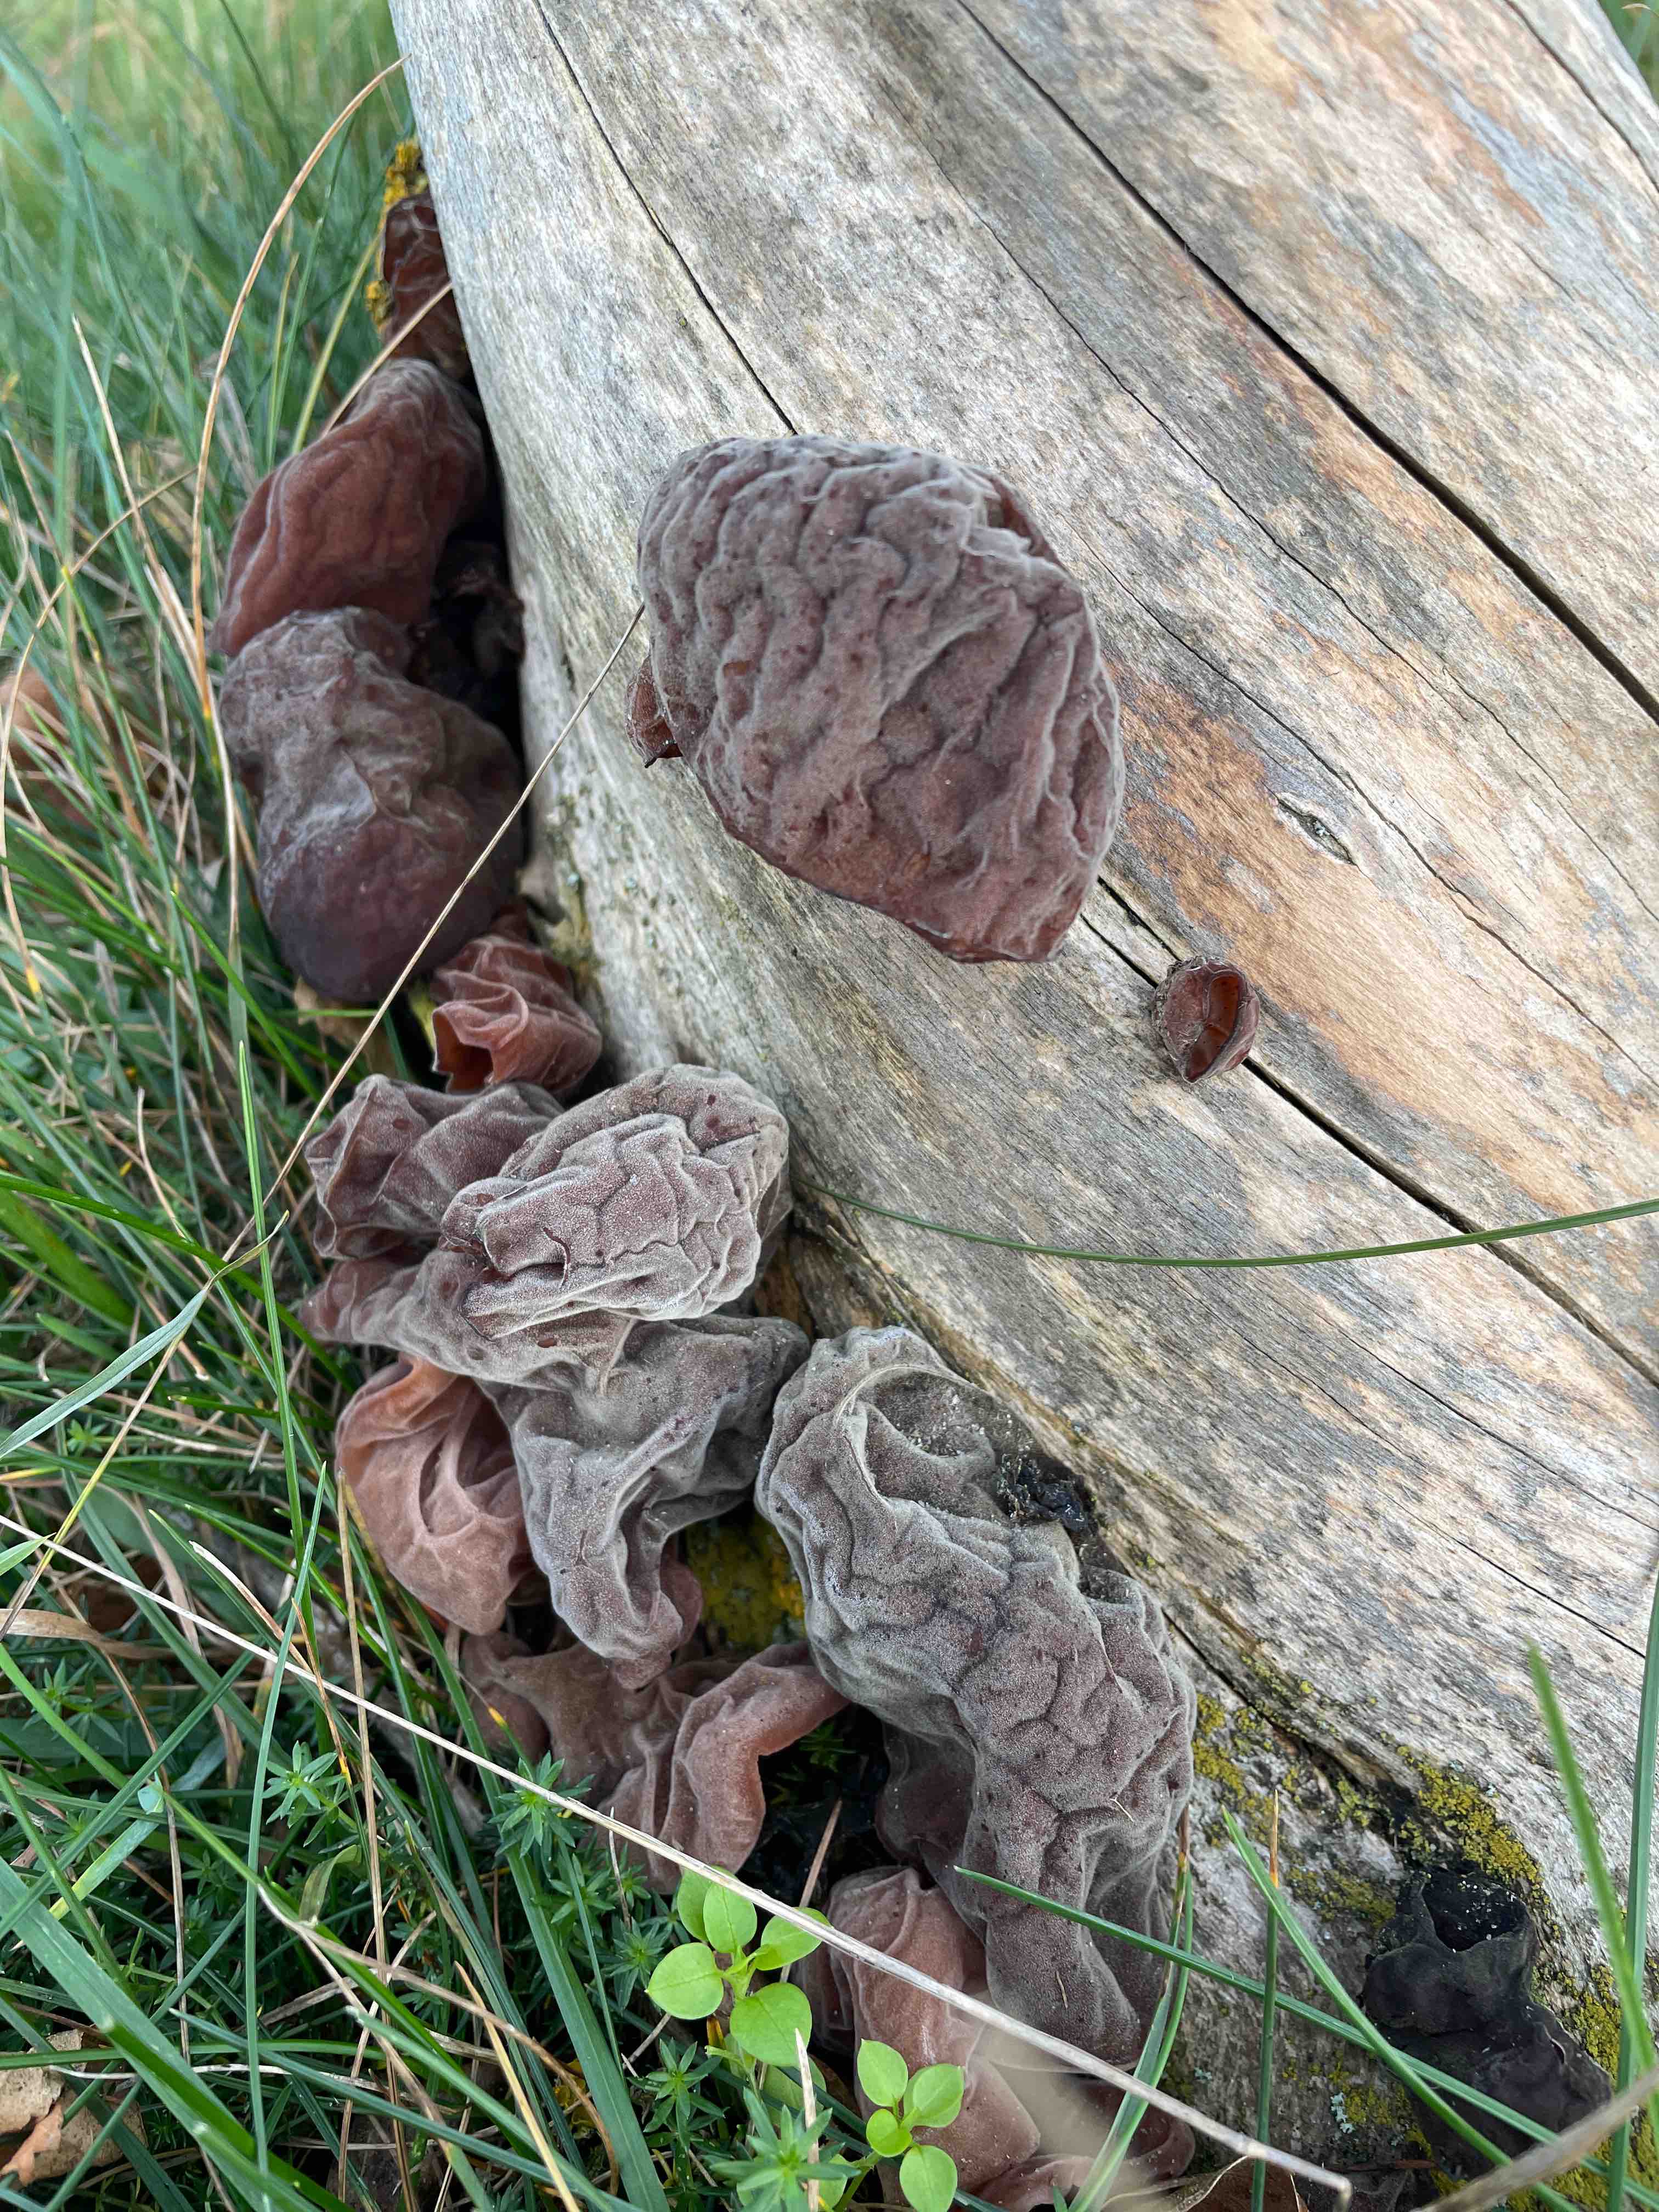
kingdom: Fungi
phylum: Basidiomycota
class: Agaricomycetes
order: Auriculariales
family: Auriculariaceae
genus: Auricularia
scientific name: Auricularia auricula-judae
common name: almindelig judasøre
